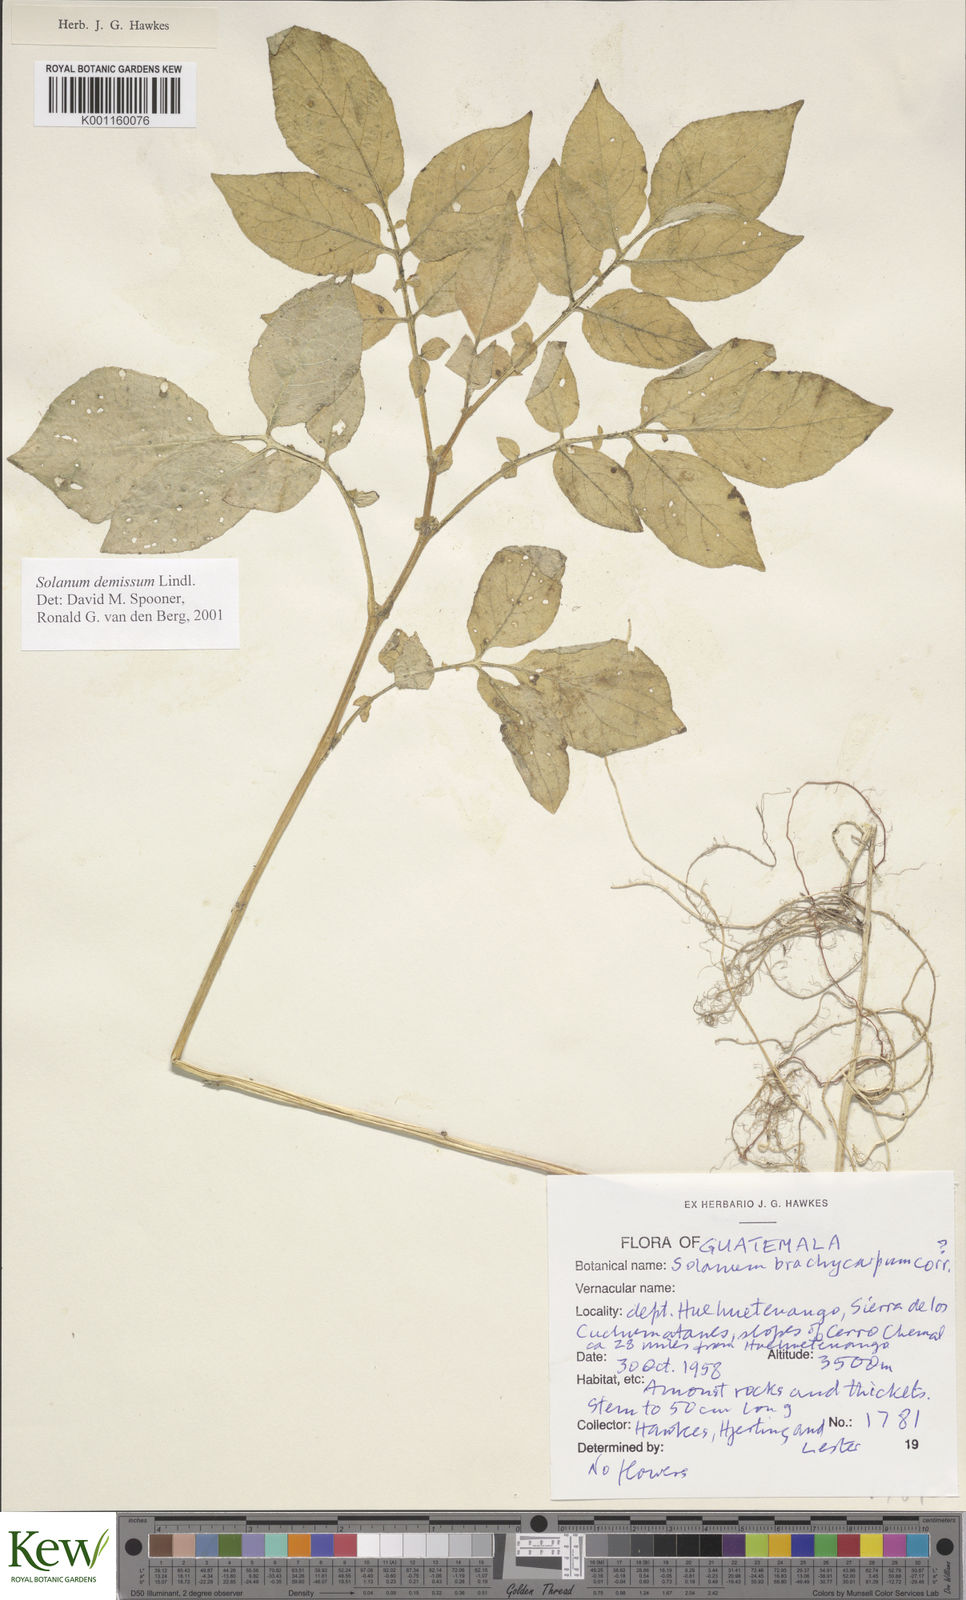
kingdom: Plantae
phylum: Tracheophyta
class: Magnoliopsida
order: Solanales
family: Solanaceae
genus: Solanum
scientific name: Solanum oxycarpum
